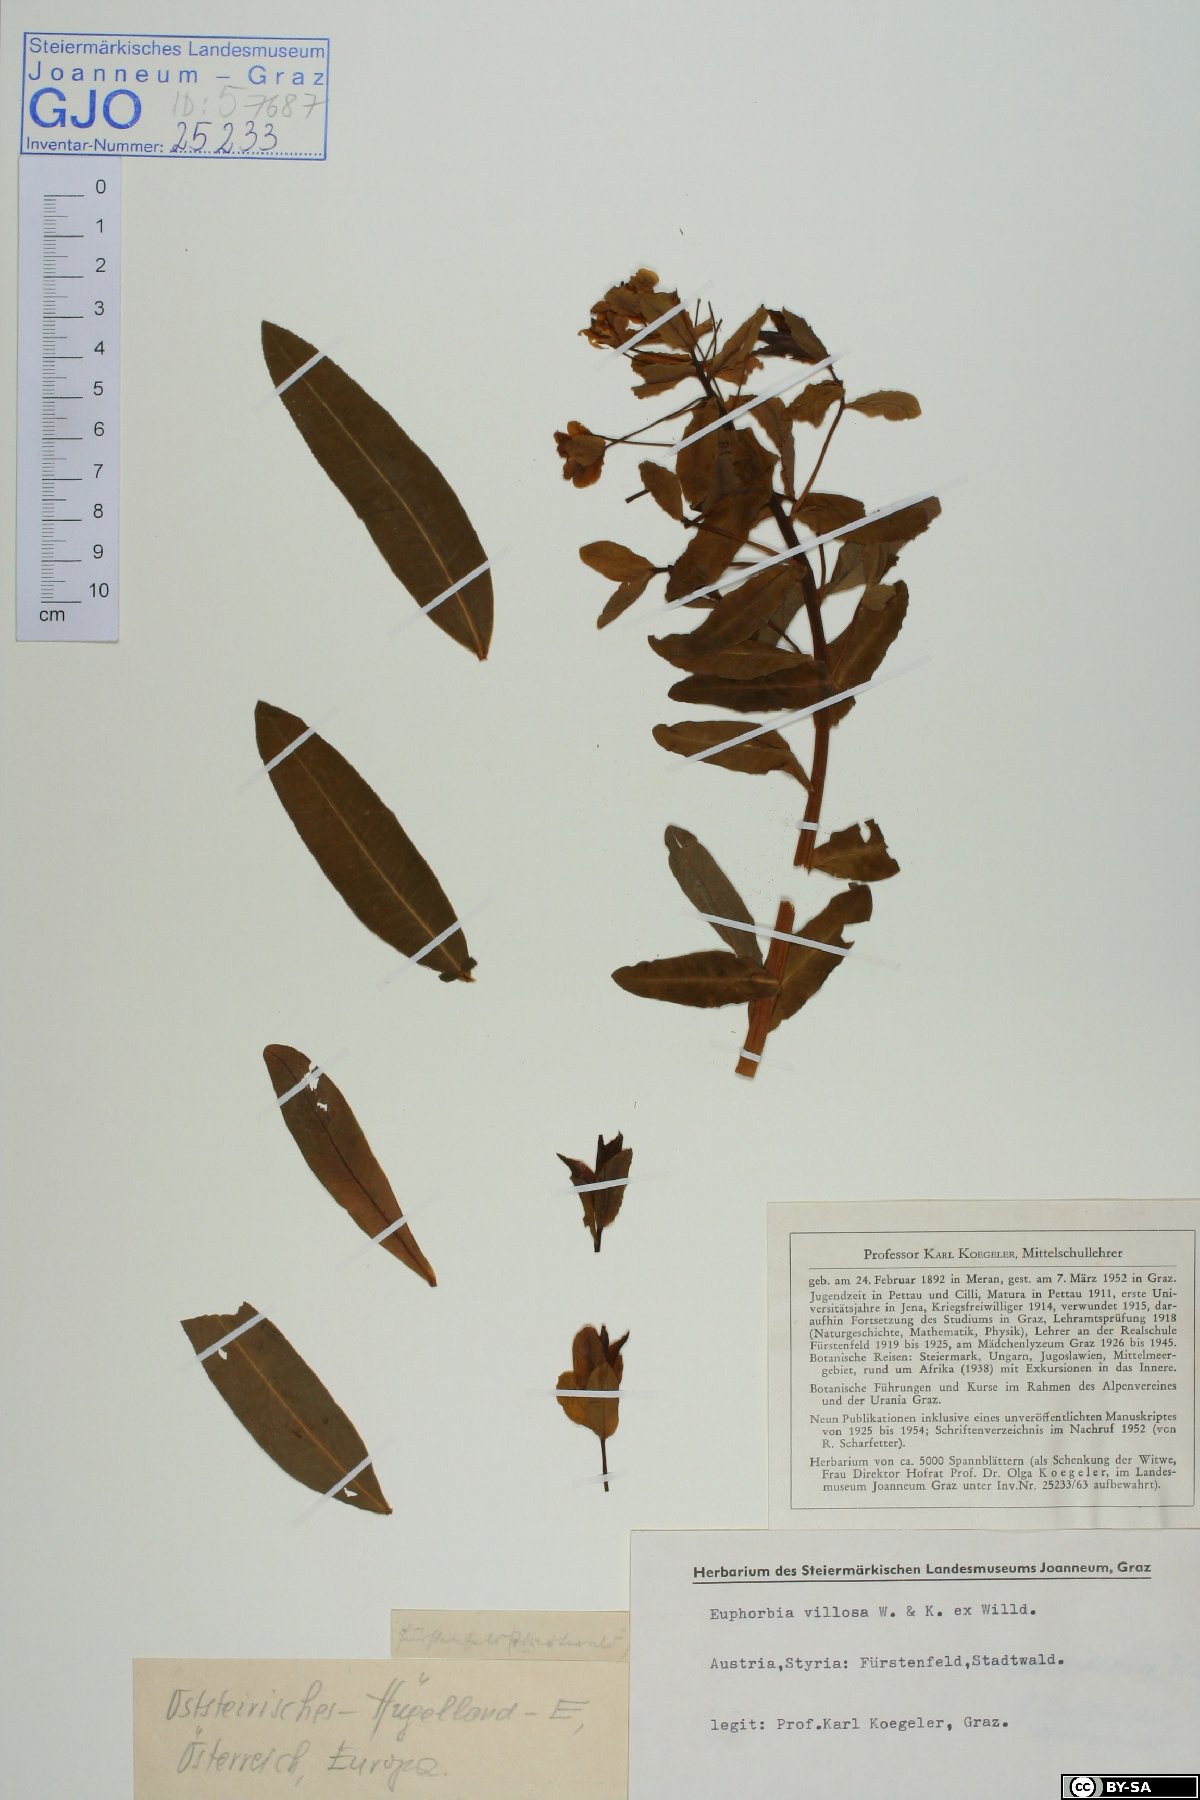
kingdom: Plantae
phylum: Tracheophyta
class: Magnoliopsida
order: Malpighiales
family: Euphorbiaceae
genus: Euphorbia
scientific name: Euphorbia illirica
